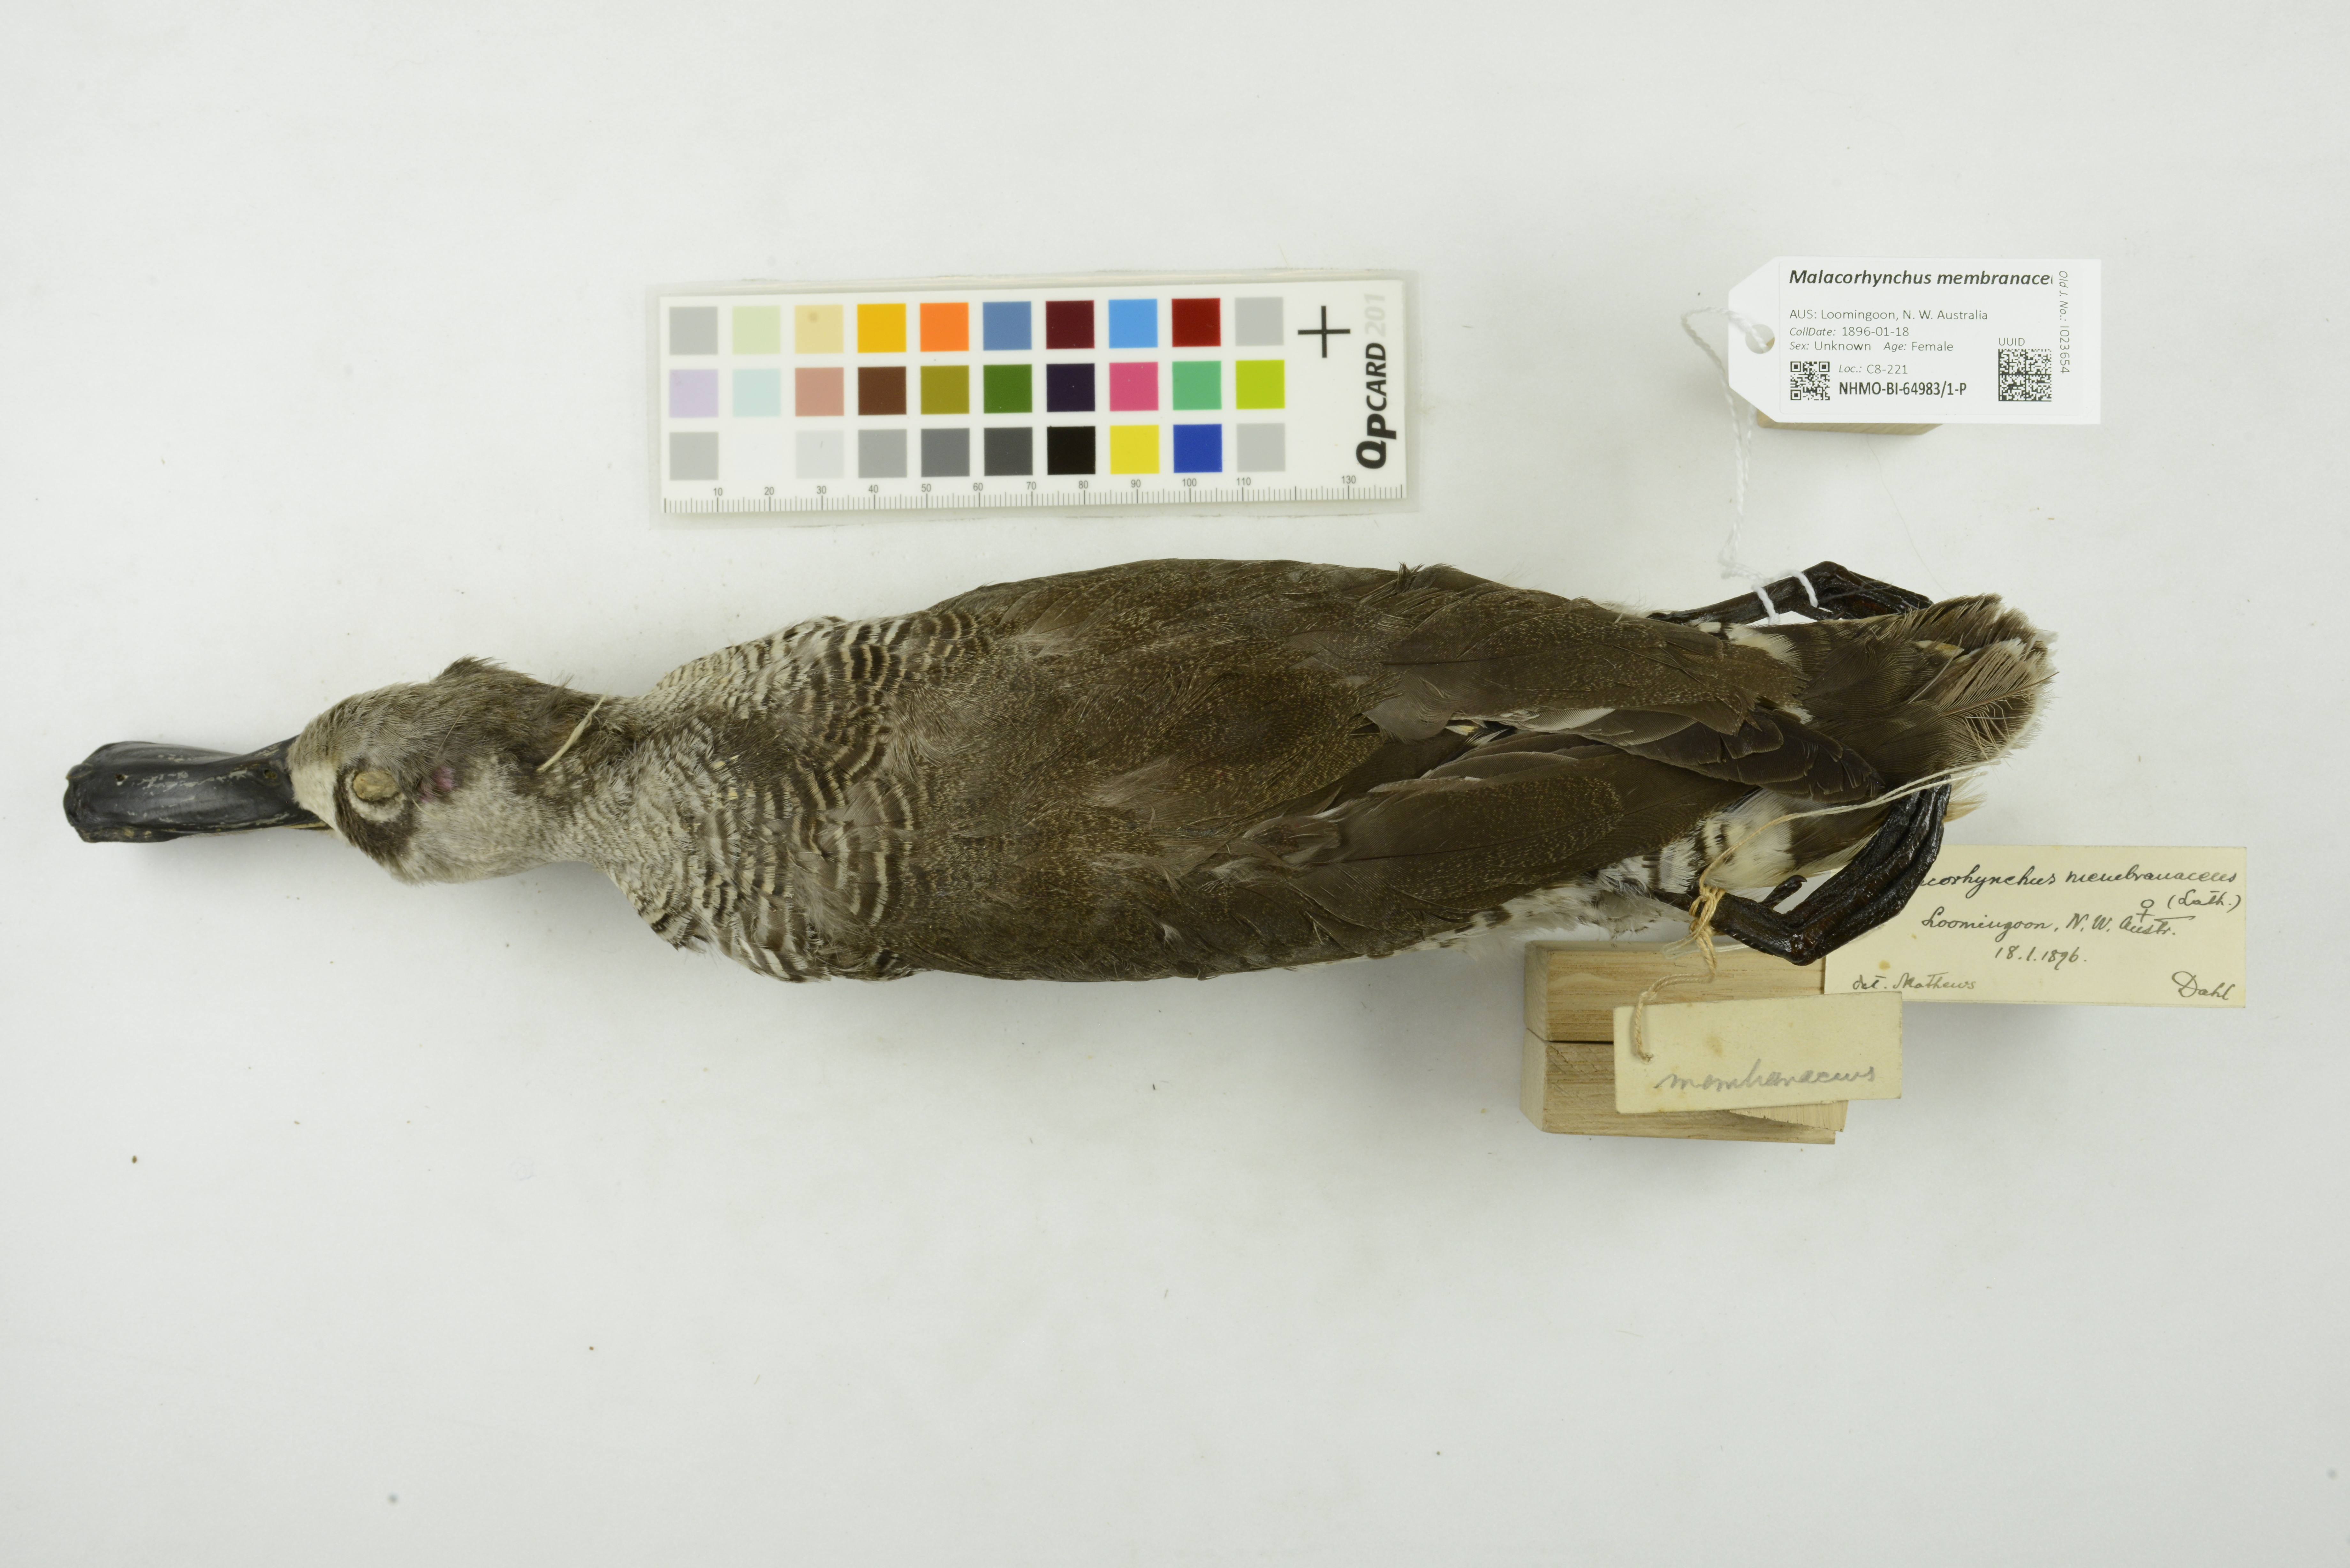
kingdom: Animalia
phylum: Chordata
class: Aves
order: Anseriformes
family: Anatidae
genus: Malacorhynchus
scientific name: Malacorhynchus membranaceus
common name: Pink-eared duck
